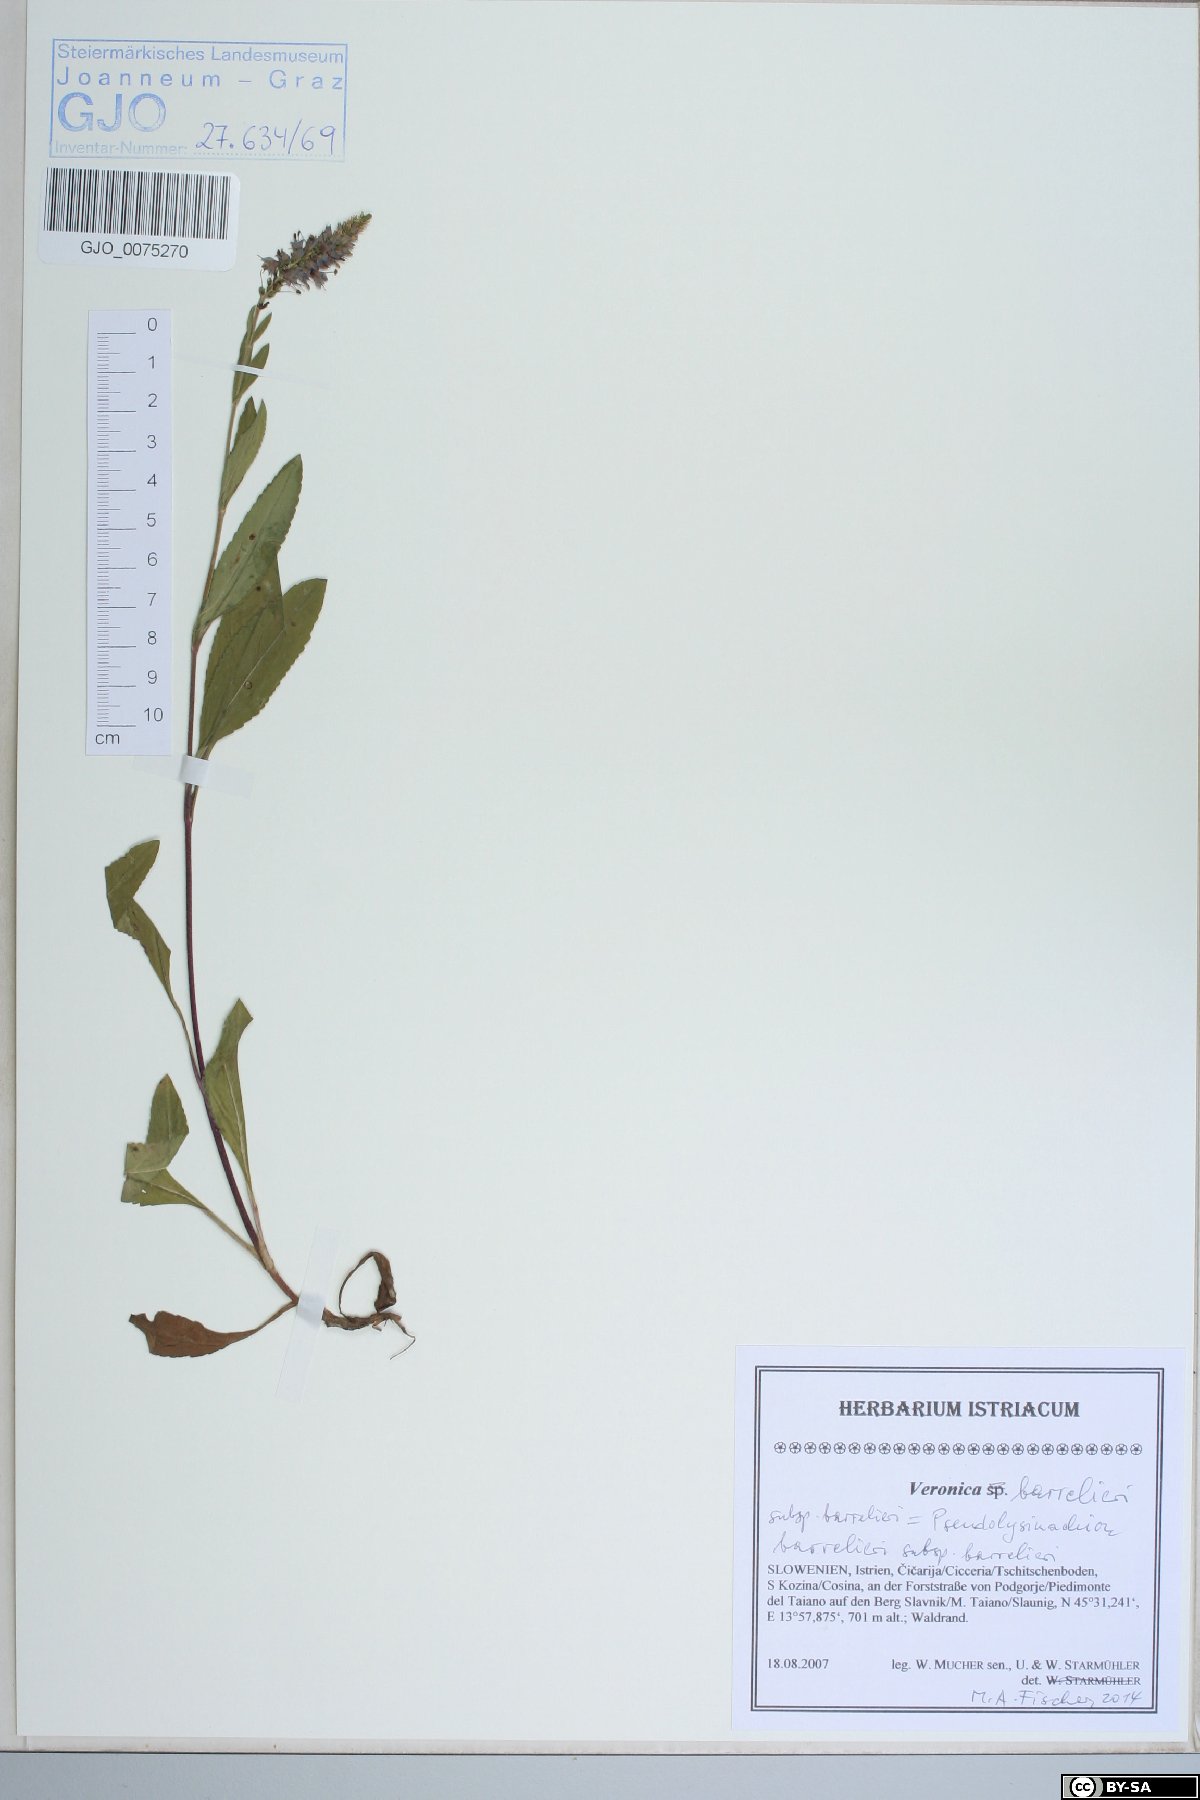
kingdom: Plantae
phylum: Tracheophyta
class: Magnoliopsida
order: Lamiales
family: Plantaginaceae
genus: Veronica
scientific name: Veronica barrelieri
